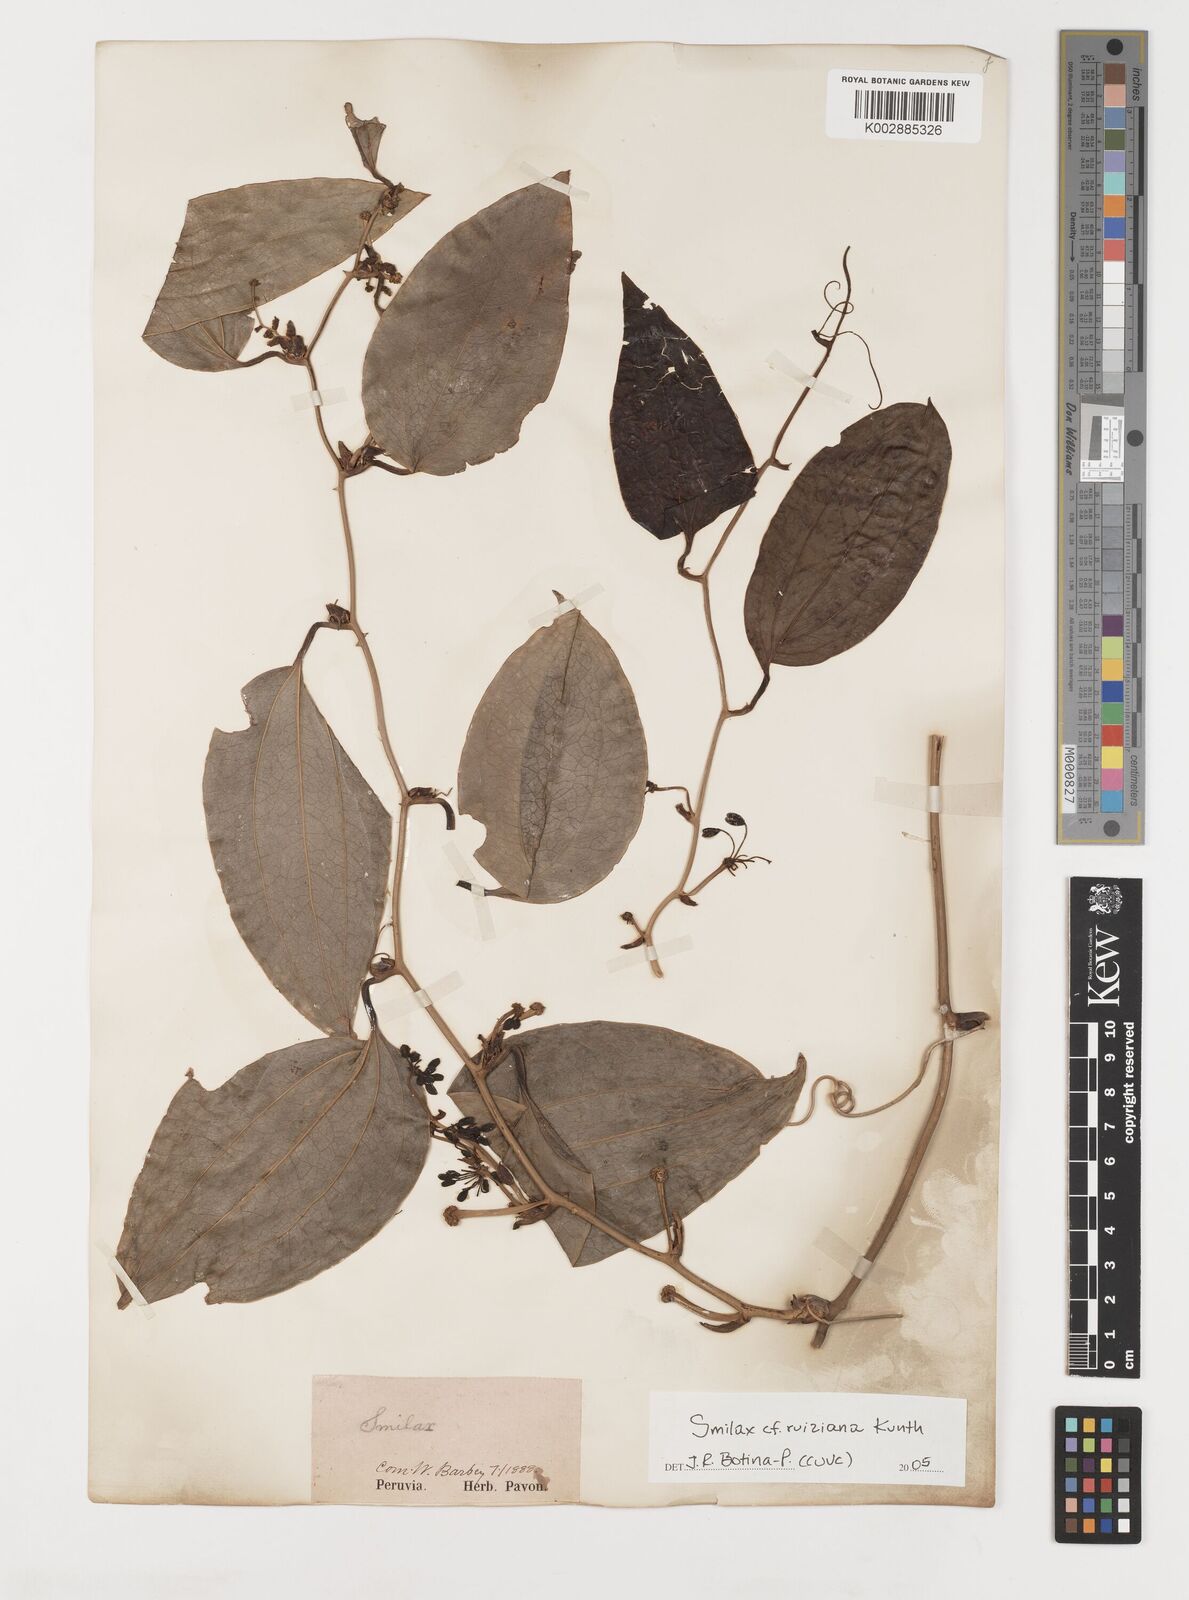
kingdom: Plantae
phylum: Tracheophyta
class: Liliopsida
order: Liliales
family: Smilacaceae
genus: Smilax
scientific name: Smilax purhampuy
